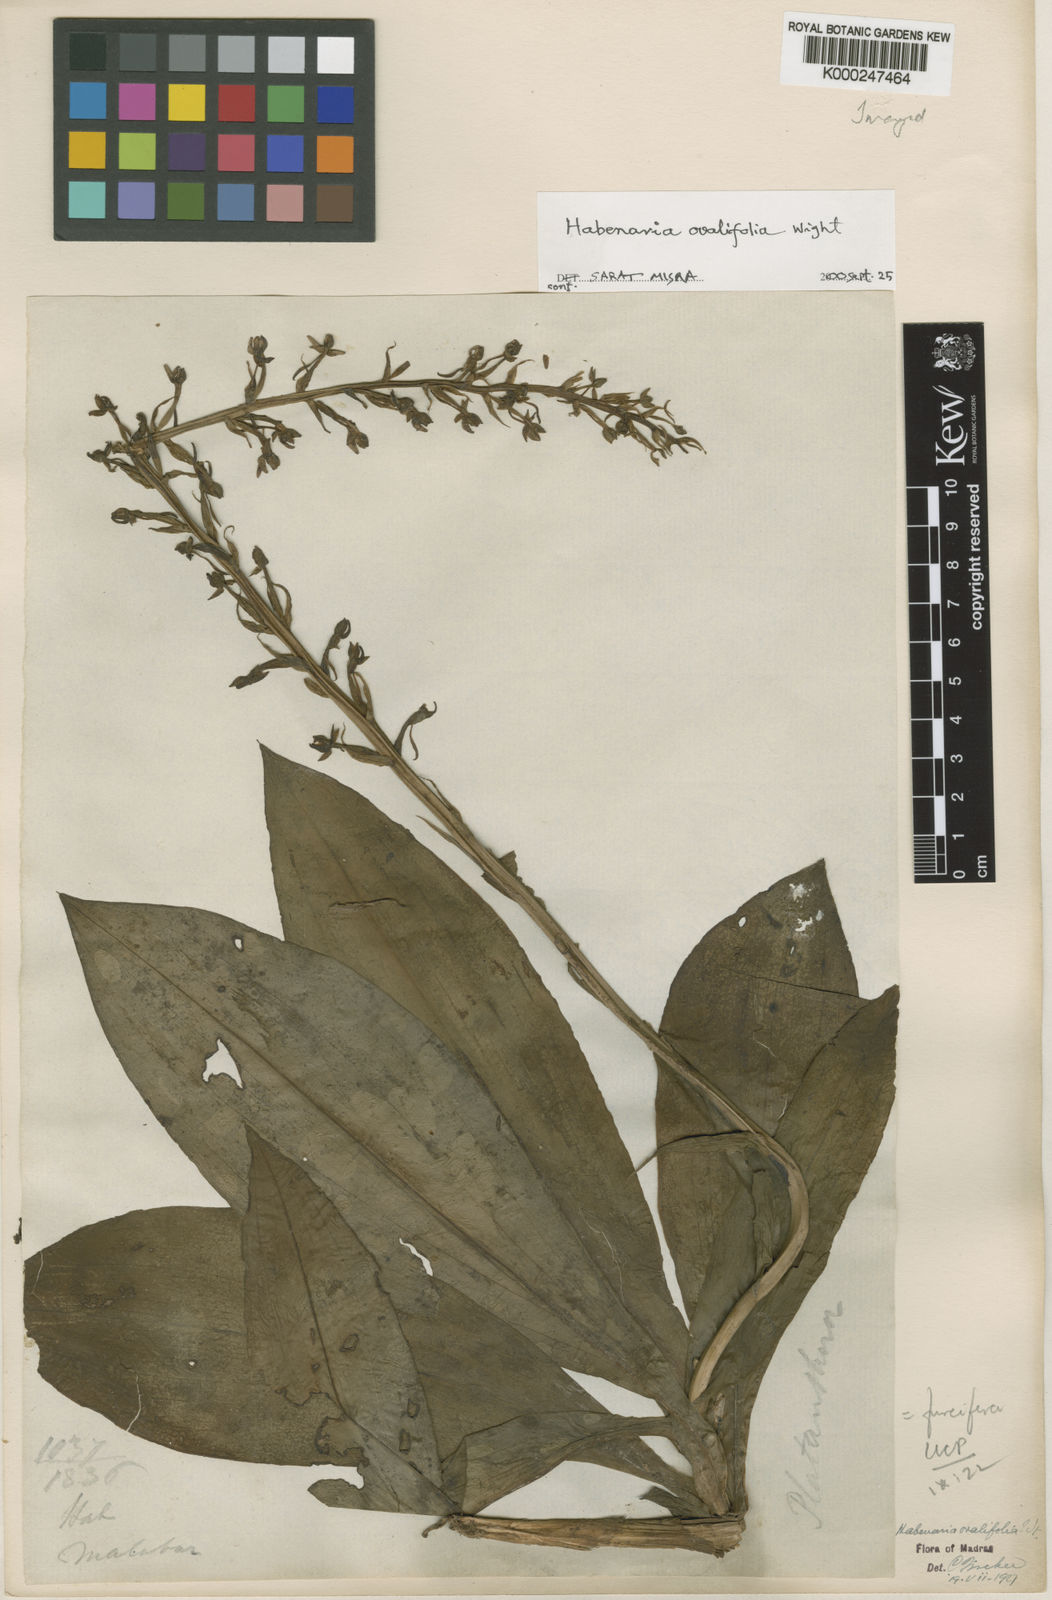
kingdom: Plantae
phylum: Tracheophyta
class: Liliopsida
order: Asparagales
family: Orchidaceae
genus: Habenaria
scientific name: Habenaria furcifera
